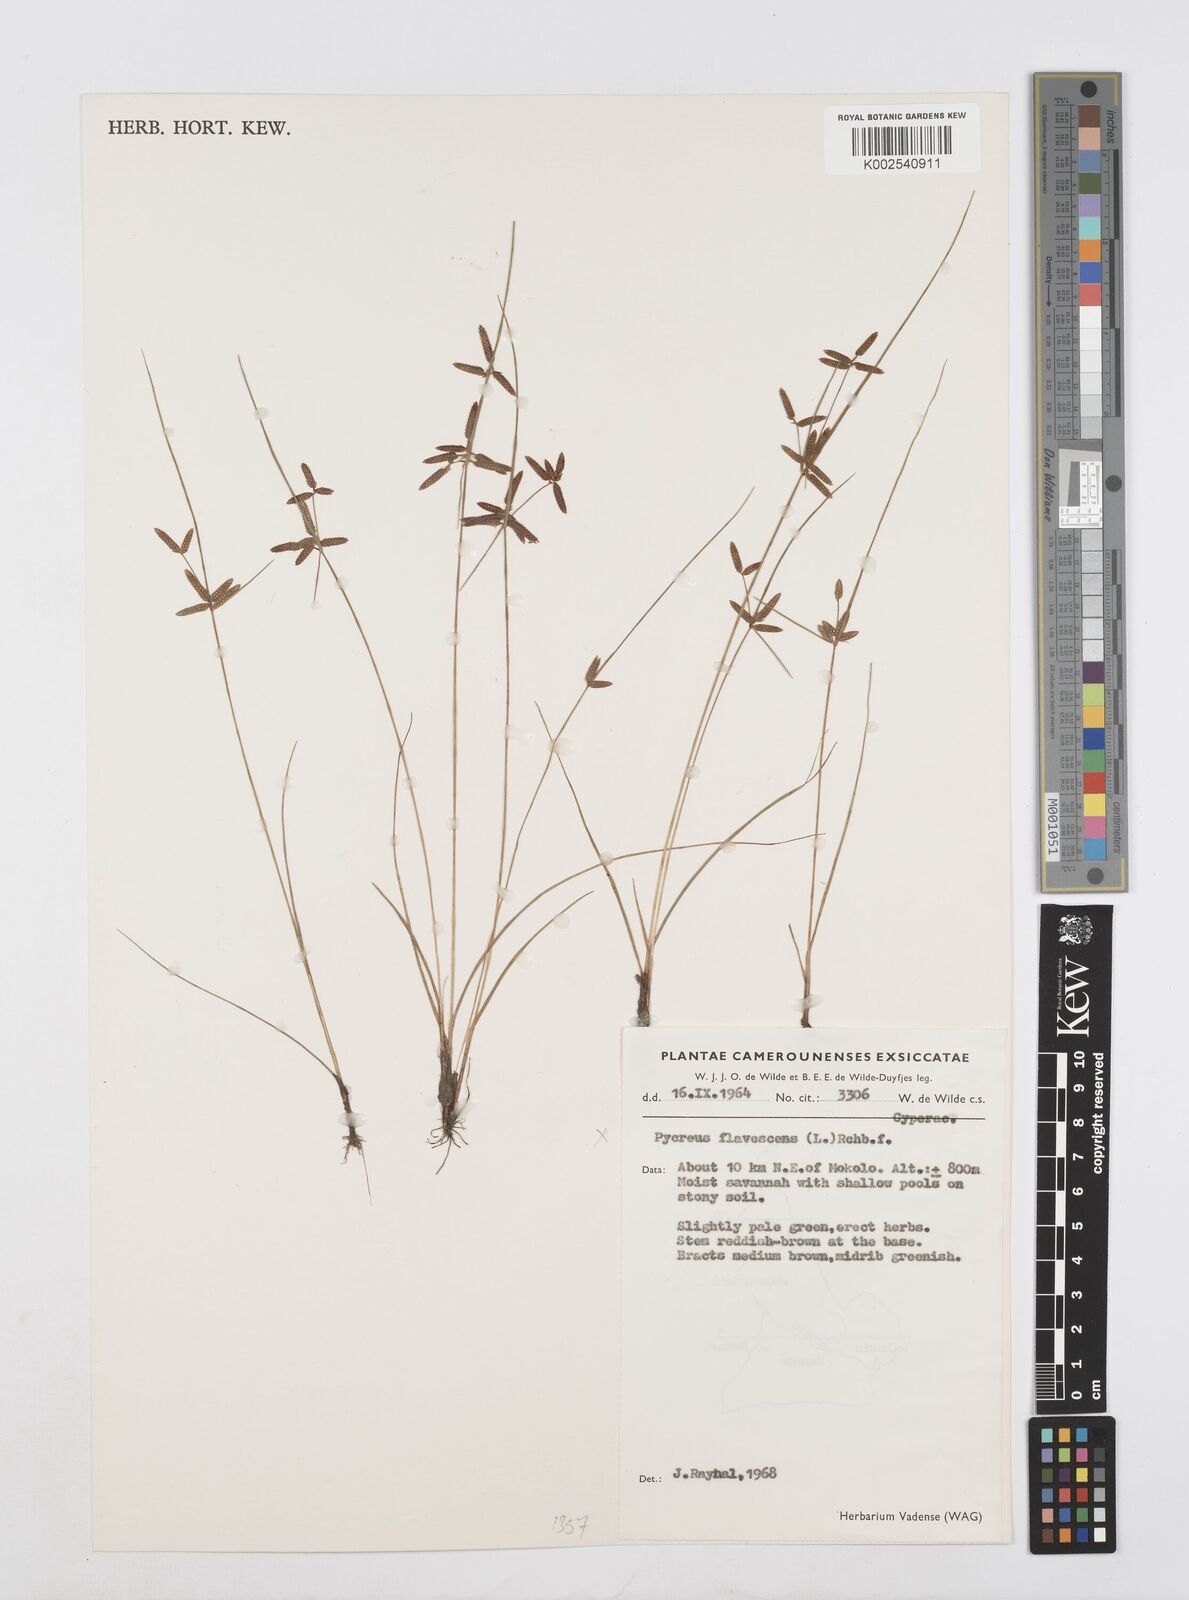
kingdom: Plantae
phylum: Tracheophyta
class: Liliopsida
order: Poales
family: Cyperaceae
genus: Cyperus
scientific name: Cyperus flavescens
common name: Yellow galingale
